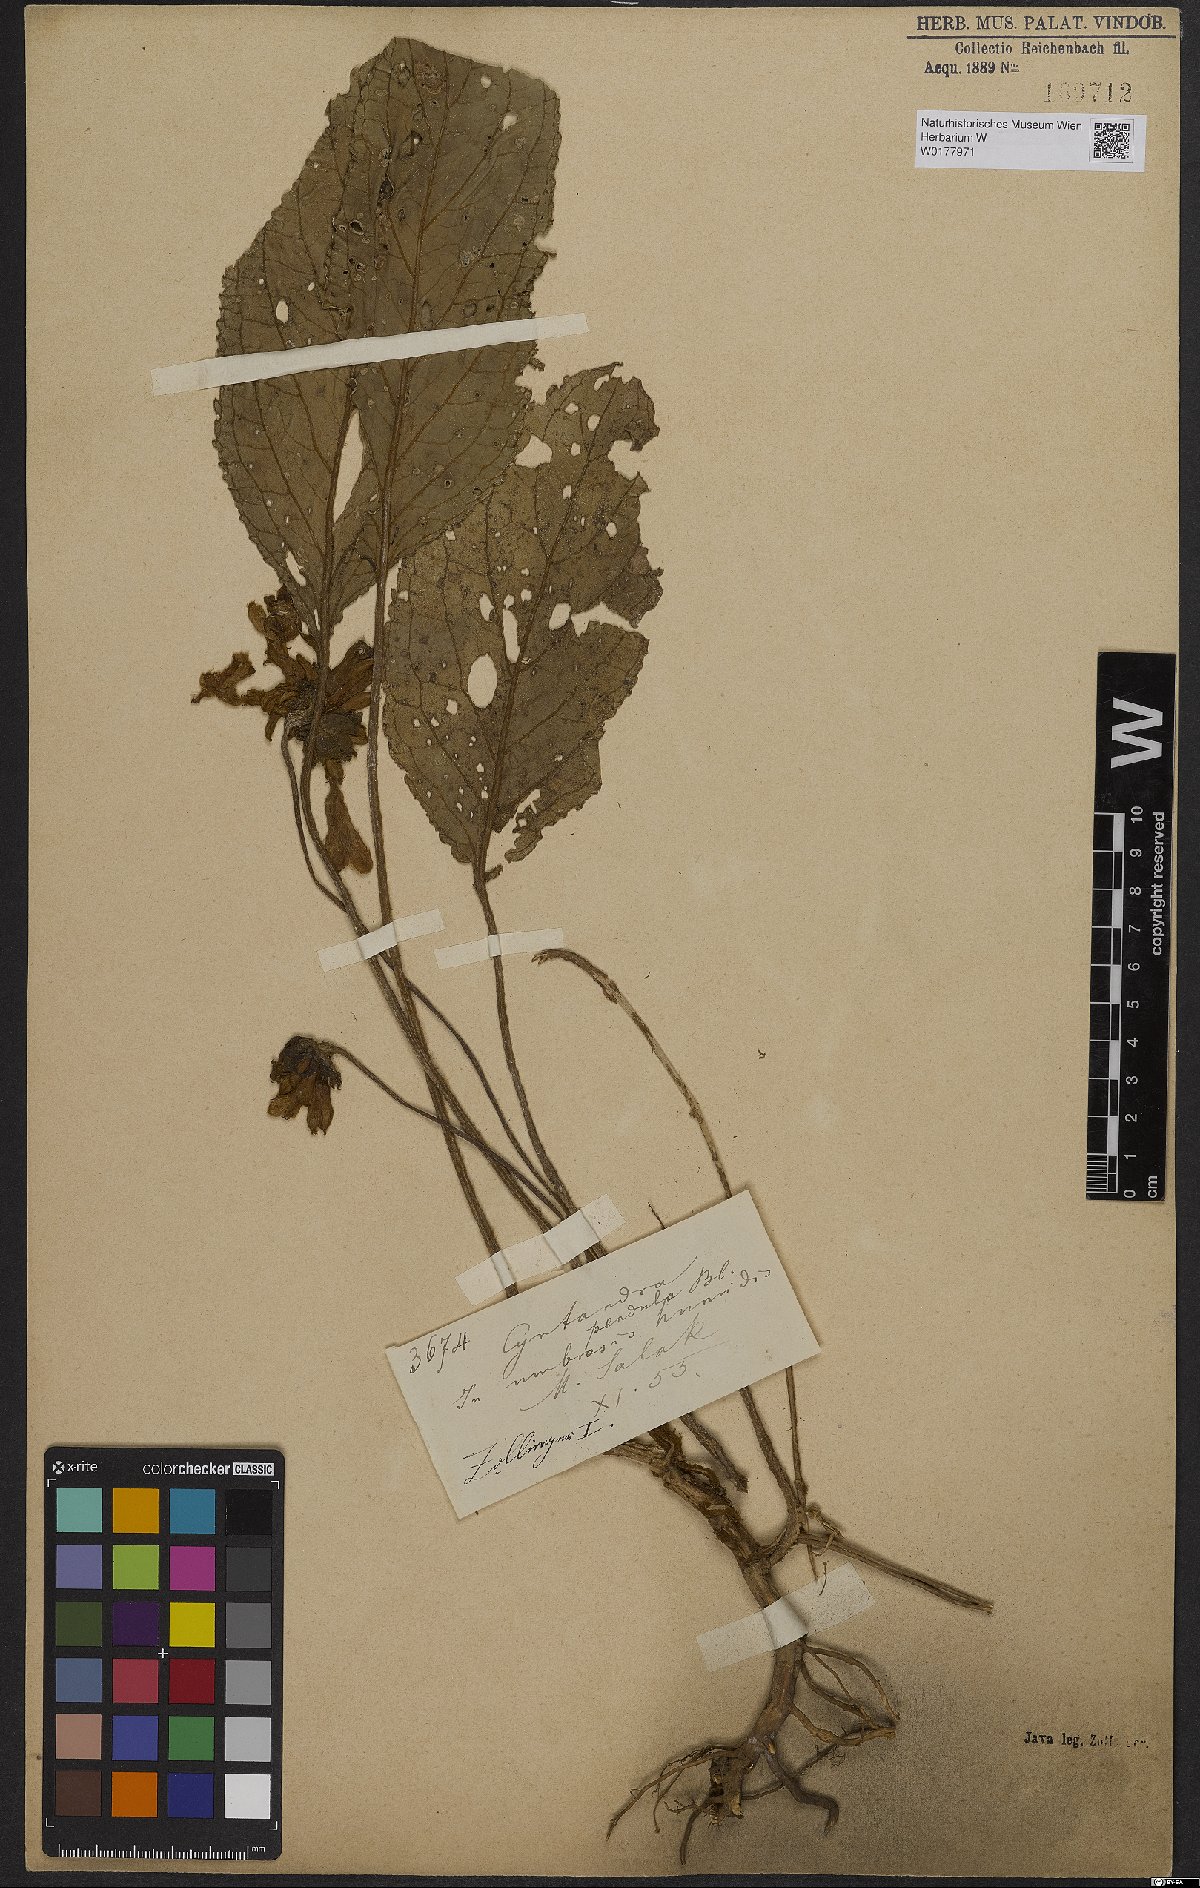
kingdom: Plantae
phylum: Tracheophyta
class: Magnoliopsida
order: Lamiales
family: Gesneriaceae
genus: Cyrtandra
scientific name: Cyrtandra pendula
